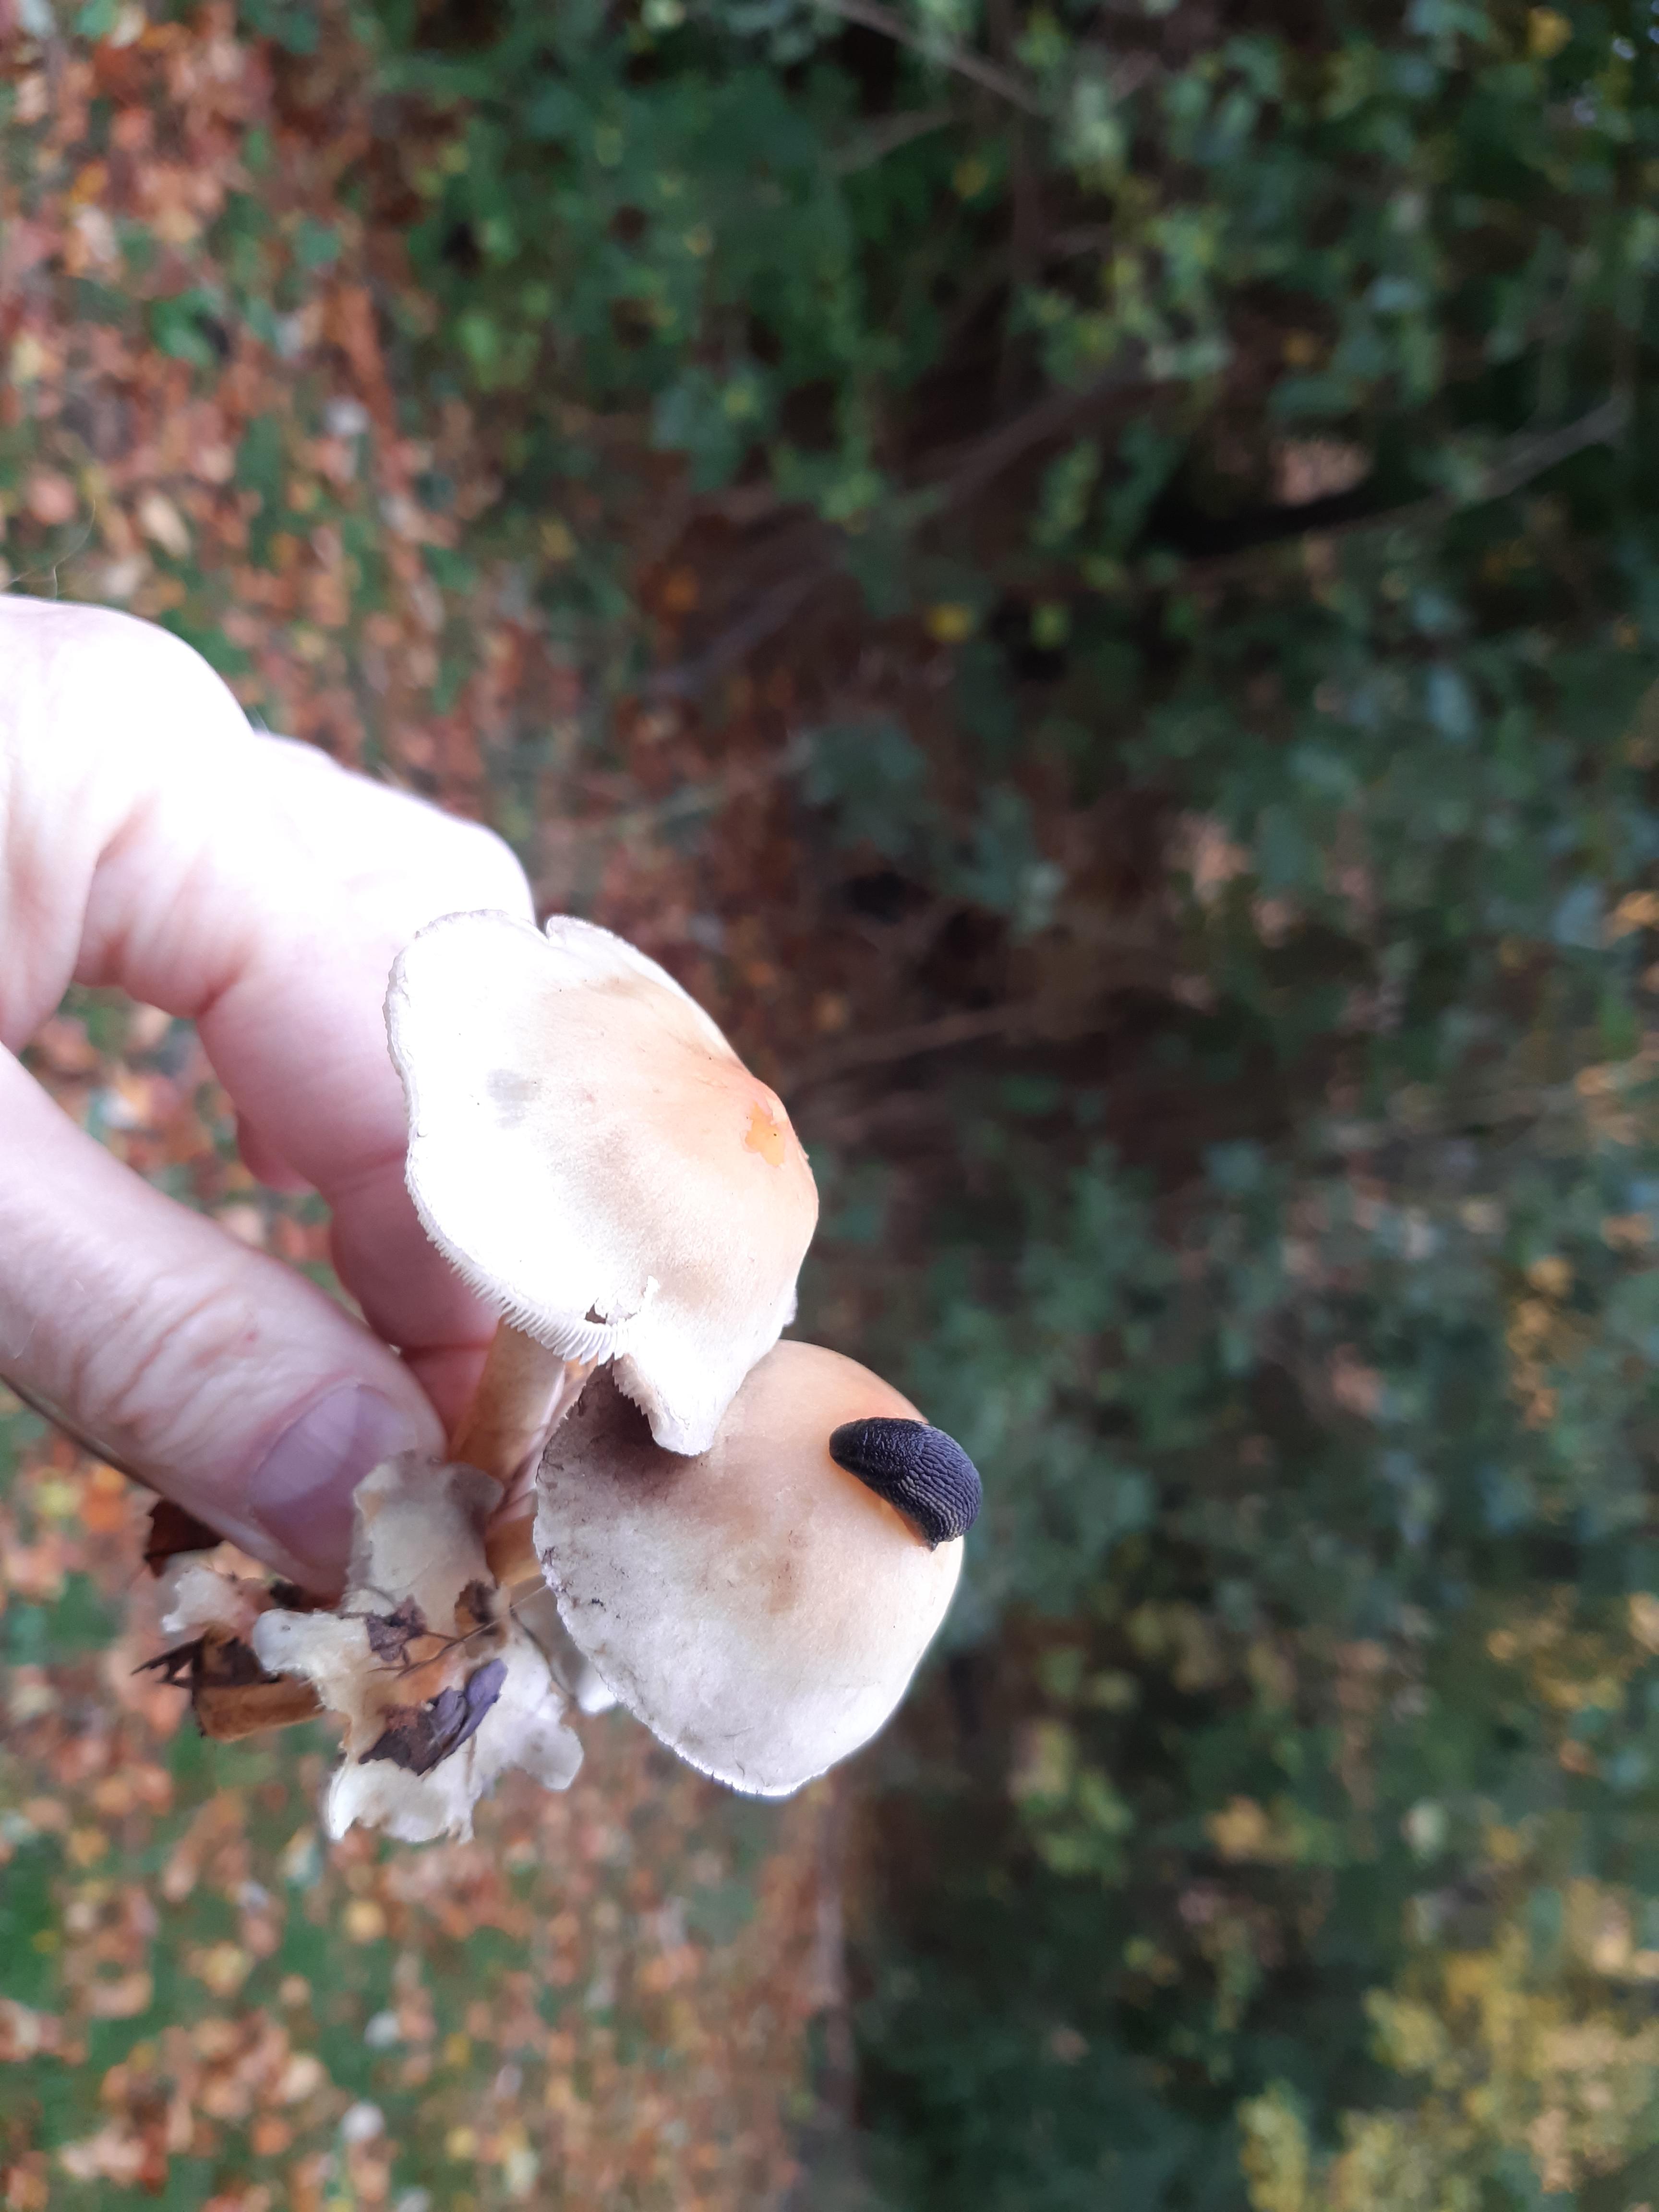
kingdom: Fungi
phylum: Basidiomycota
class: Agaricomycetes
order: Agaricales
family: Strophariaceae
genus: Hypholoma
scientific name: Hypholoma
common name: svovlhat
